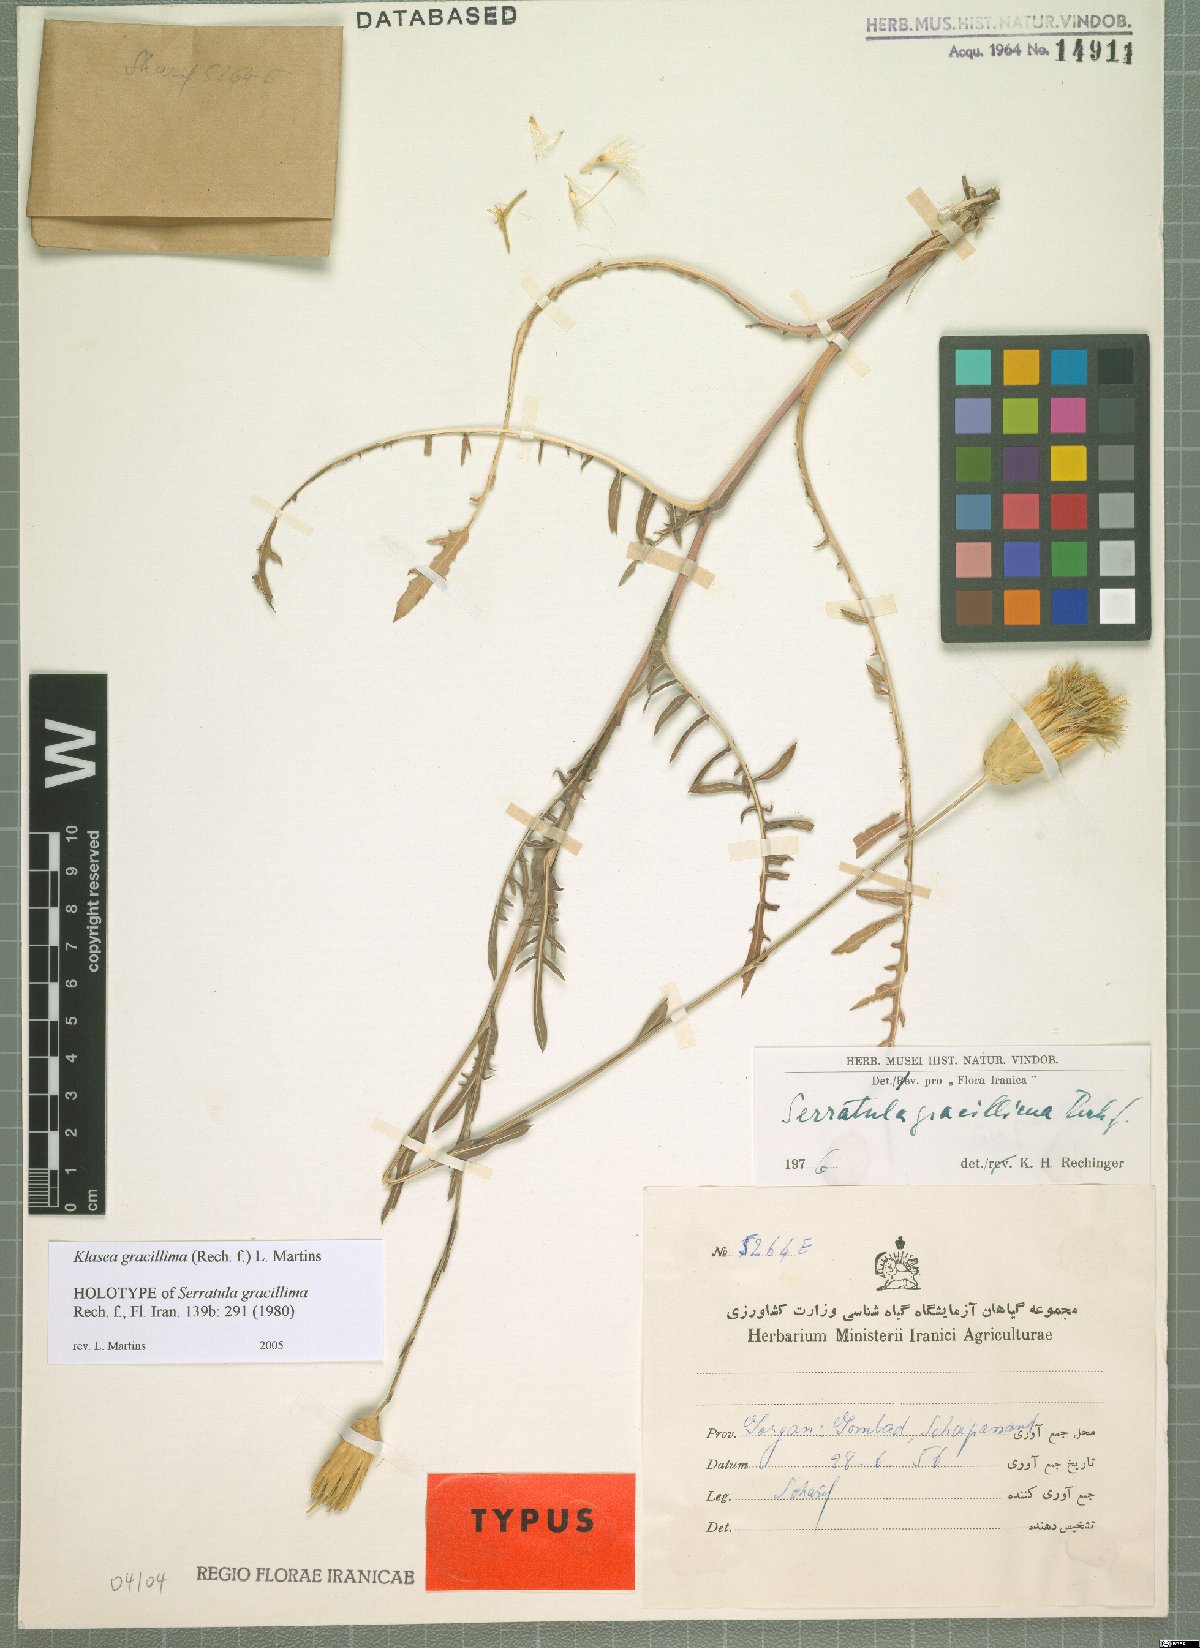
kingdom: Plantae
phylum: Tracheophyta
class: Magnoliopsida
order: Asterales
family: Asteraceae
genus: Klasea
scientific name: Klasea gracillima
